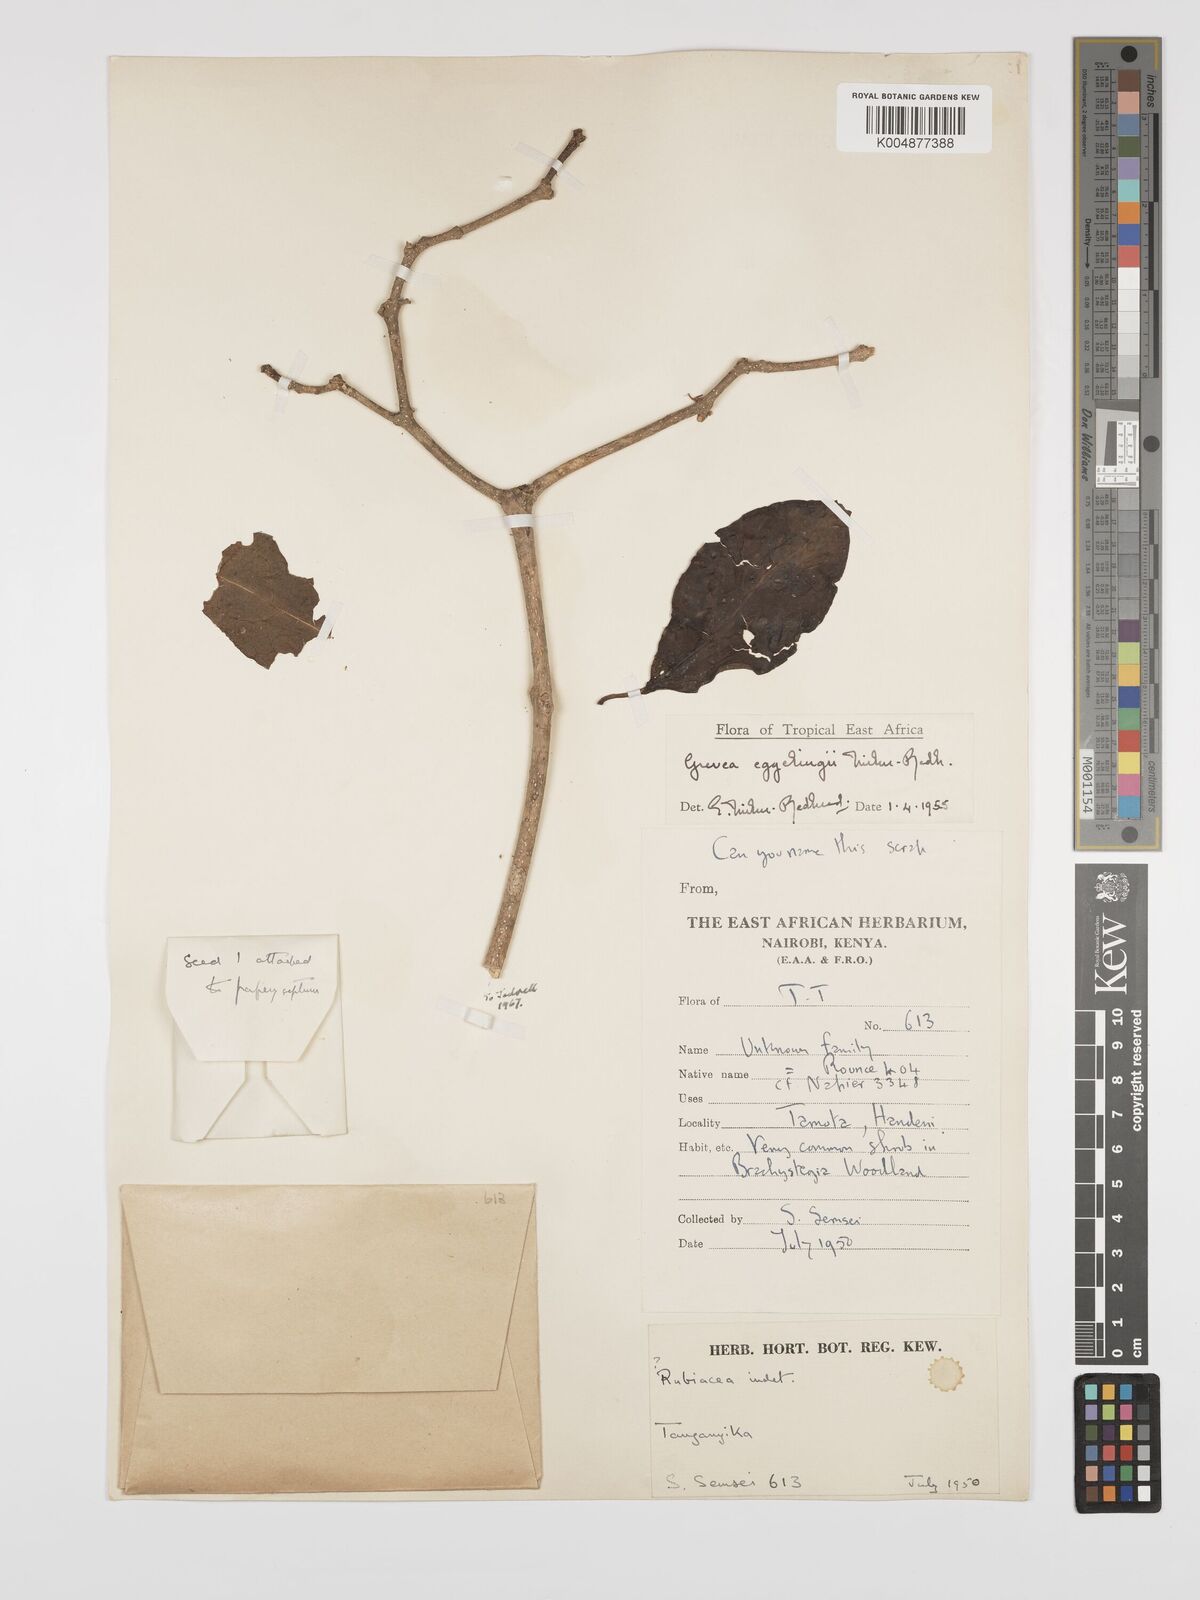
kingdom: Plantae
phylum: Tracheophyta
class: Magnoliopsida
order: Solanales
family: Montiniaceae
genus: Grevea
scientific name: Grevea eggelingii
